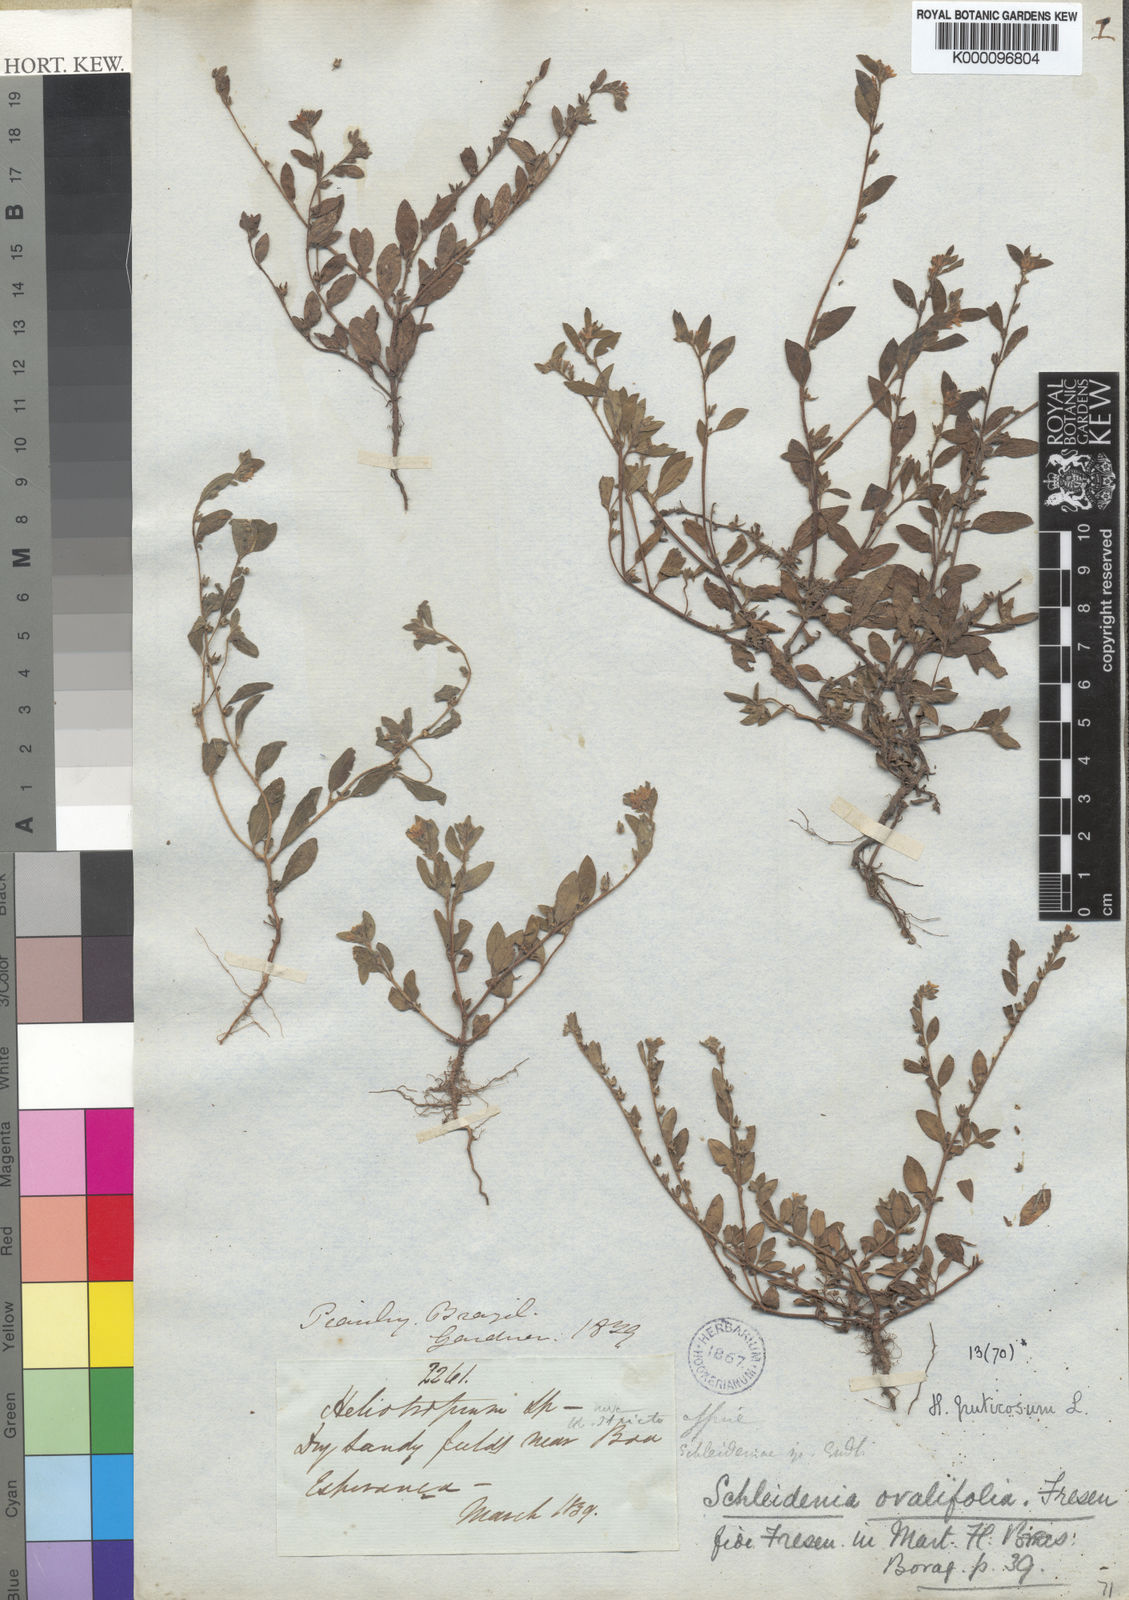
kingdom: Plantae
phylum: Tracheophyta
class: Magnoliopsida
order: Boraginales
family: Heliotropiaceae
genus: Euploca
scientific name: Euploca fruticosa
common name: Key west heliotrope
